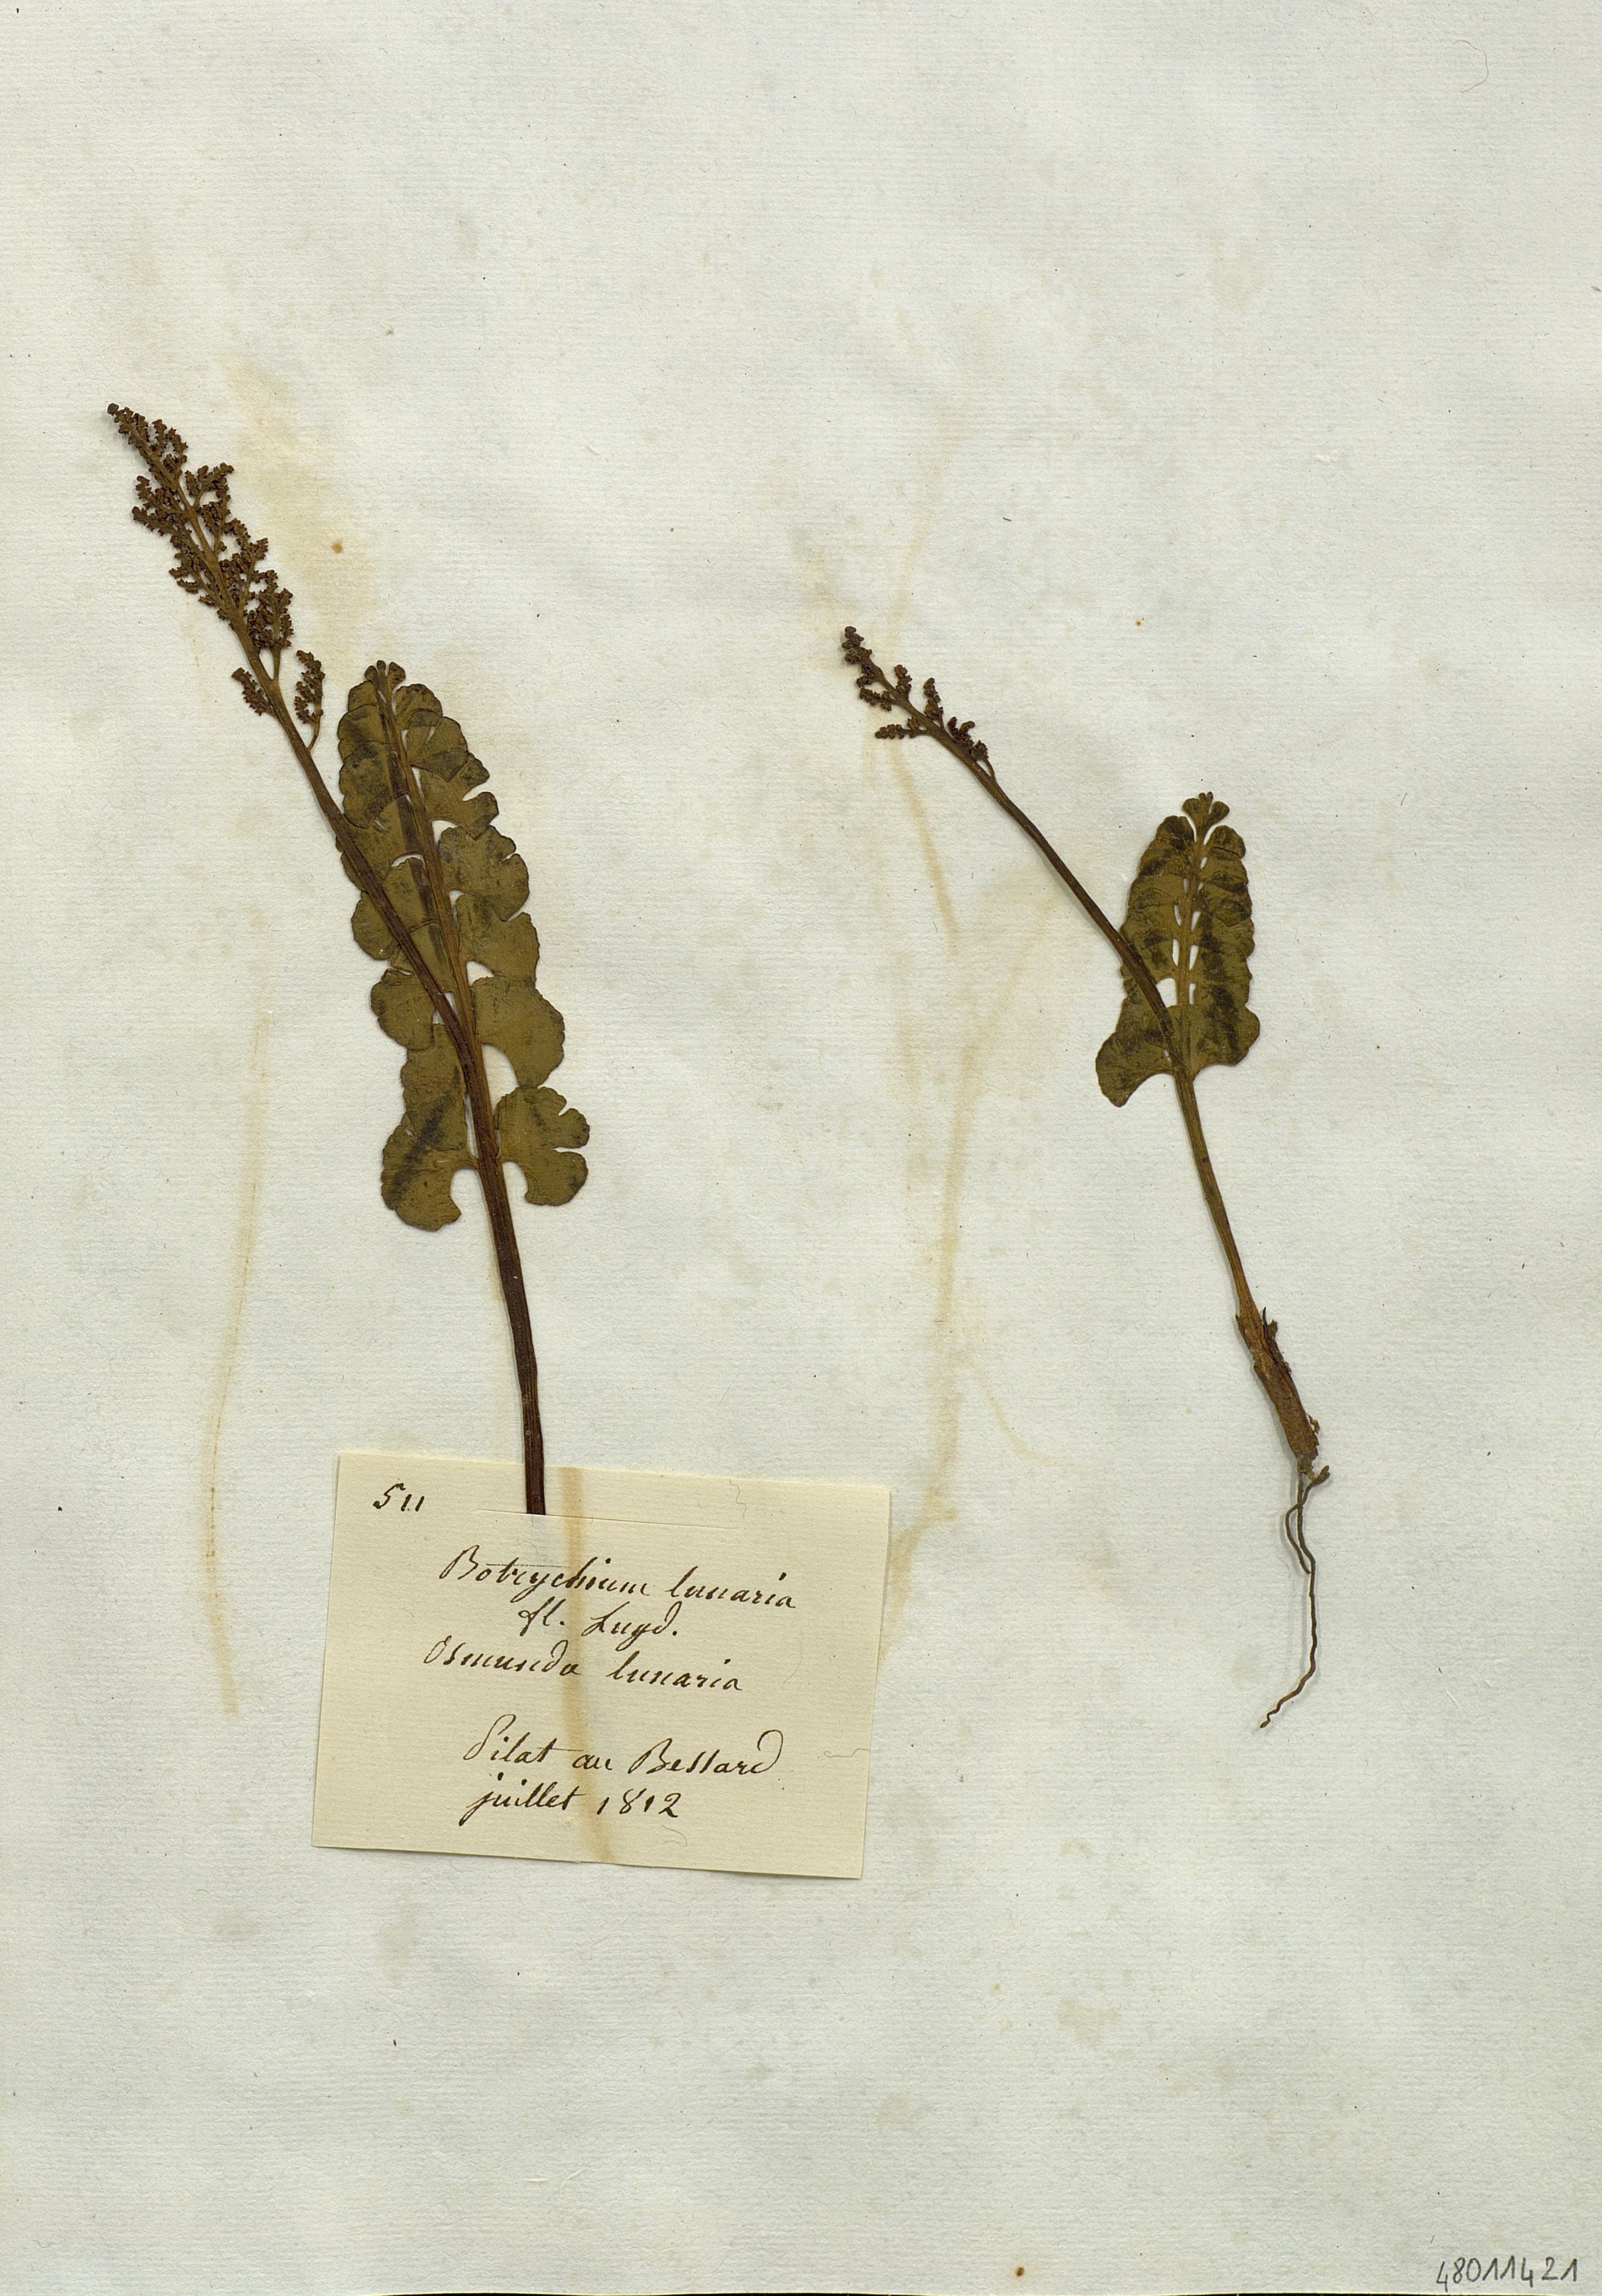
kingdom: Plantae
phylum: Tracheophyta
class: Polypodiopsida
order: Ophioglossales
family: Ophioglossaceae
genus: Botrychium
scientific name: Botrychium lunaria
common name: Moonwort
